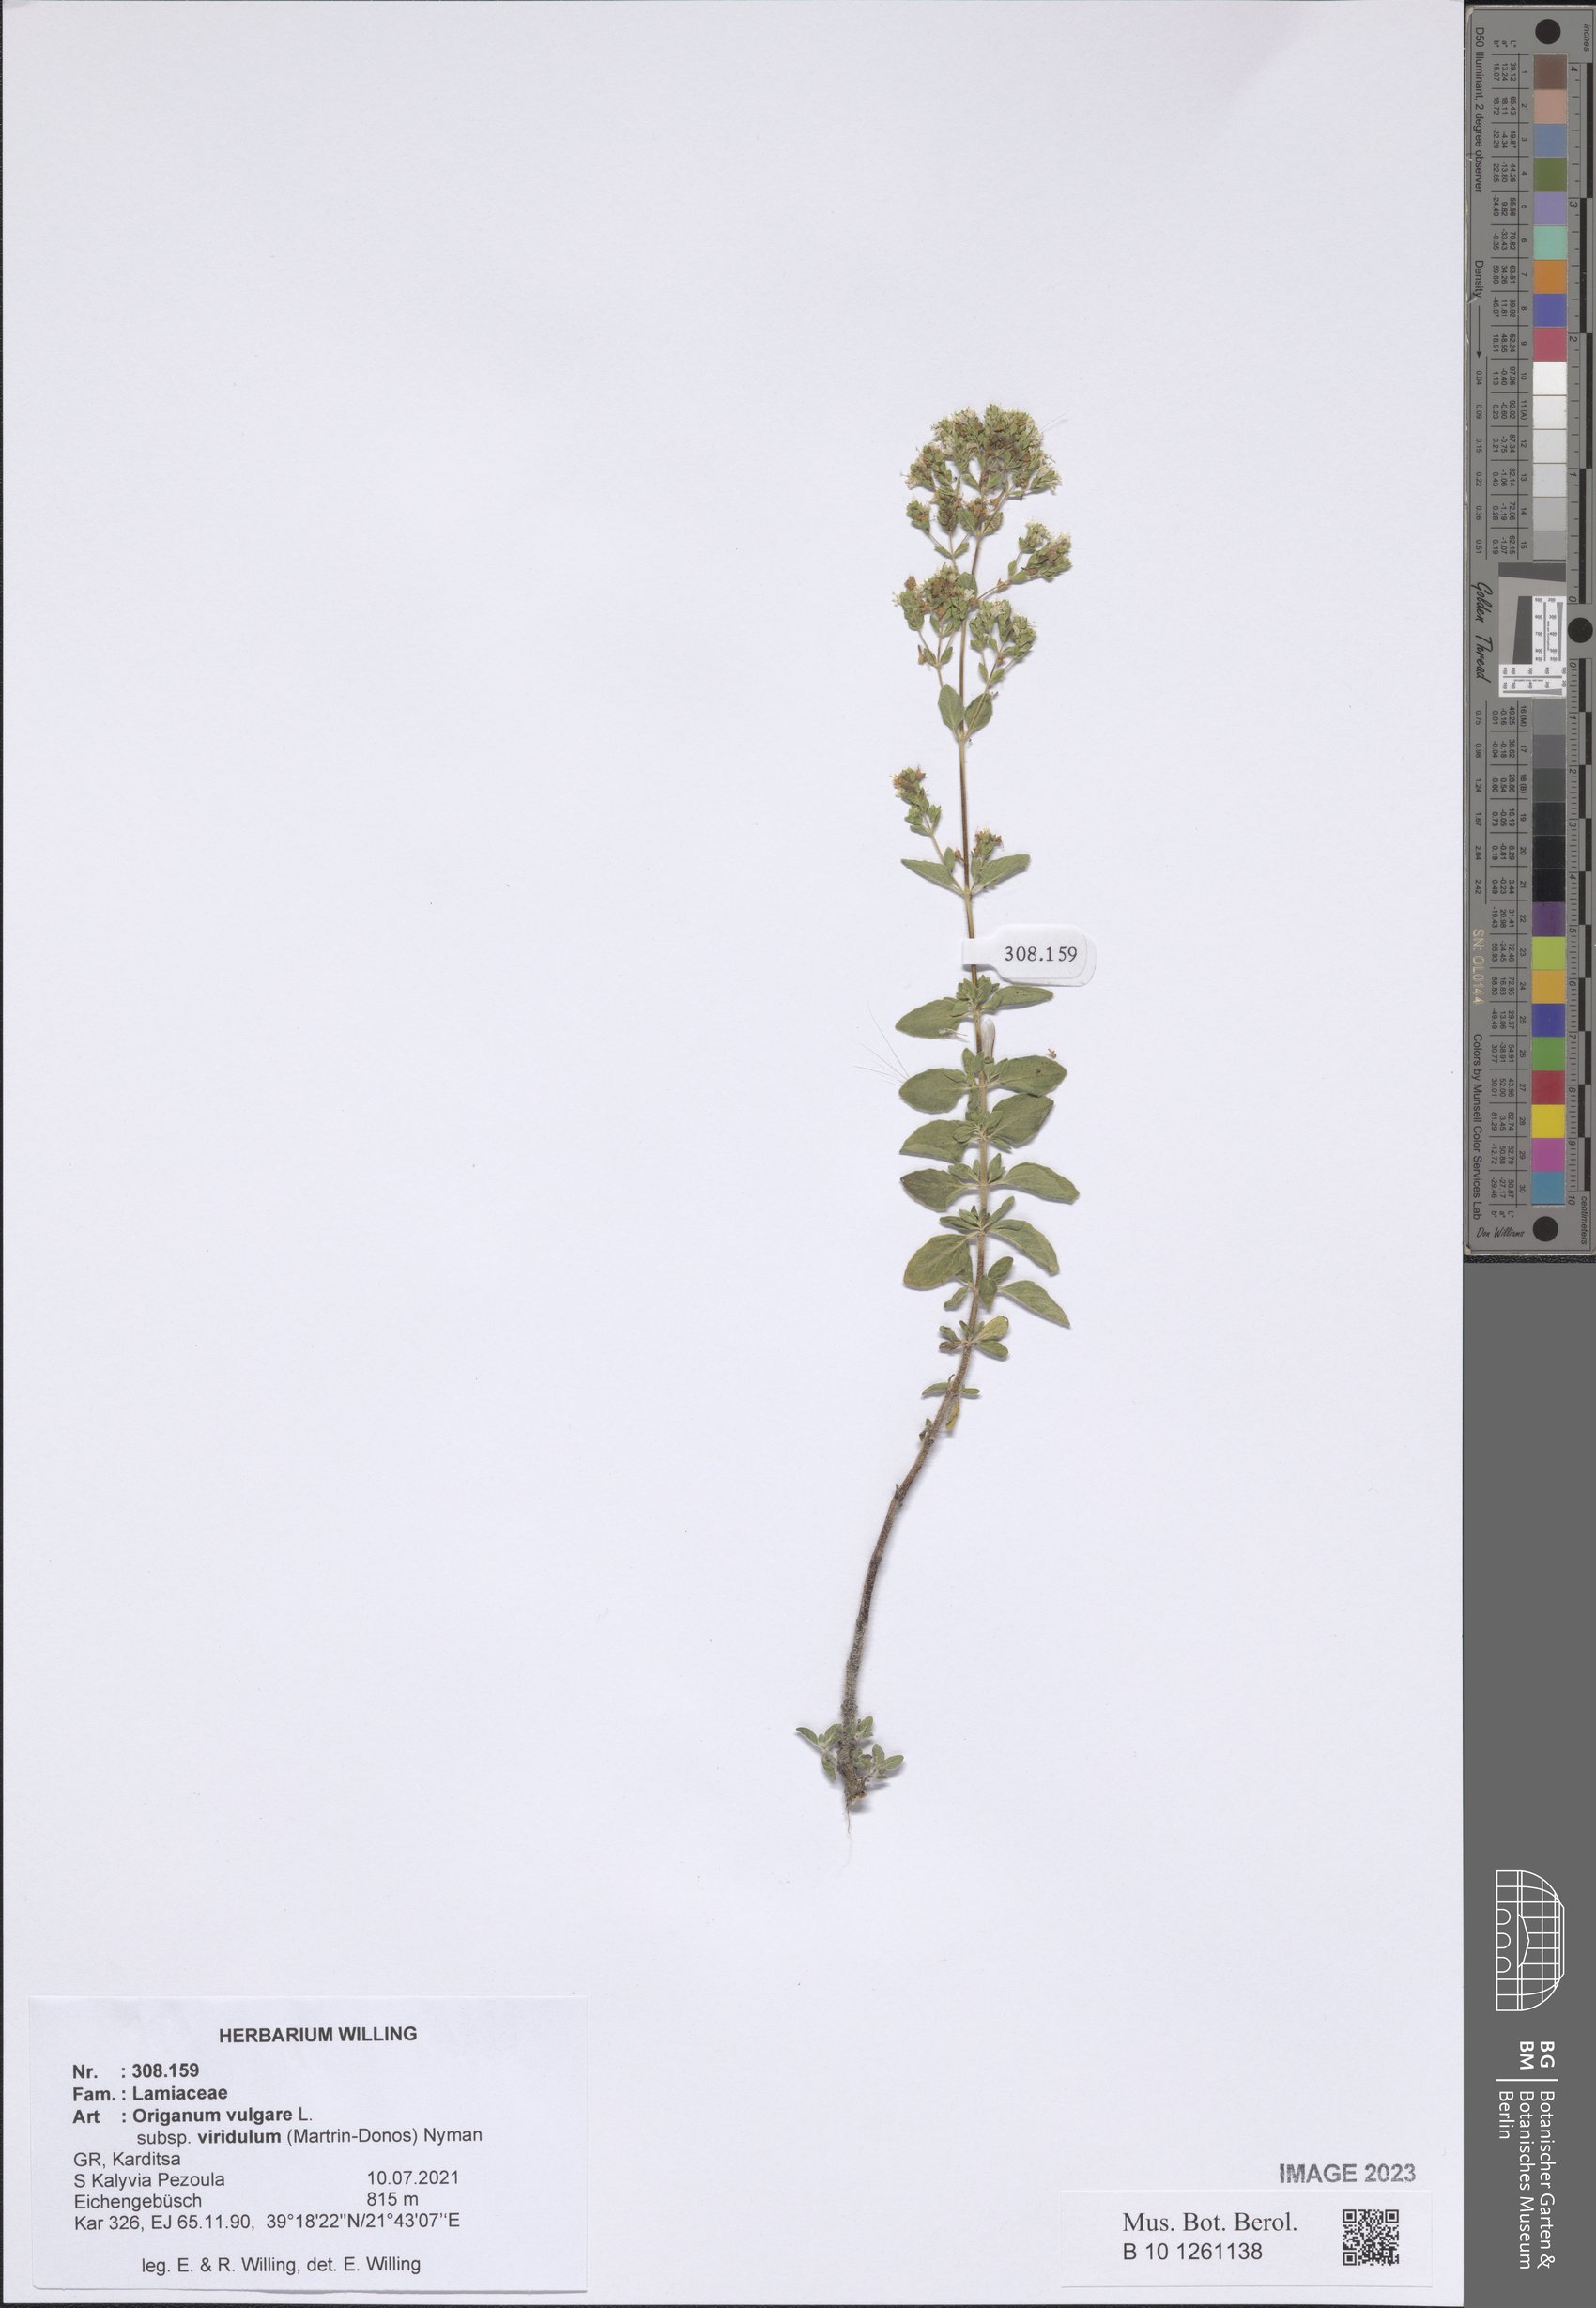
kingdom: Plantae
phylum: Tracheophyta
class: Magnoliopsida
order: Lamiales
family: Lamiaceae
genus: Origanum
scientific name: Origanum vulgare
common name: Wild marjoram
